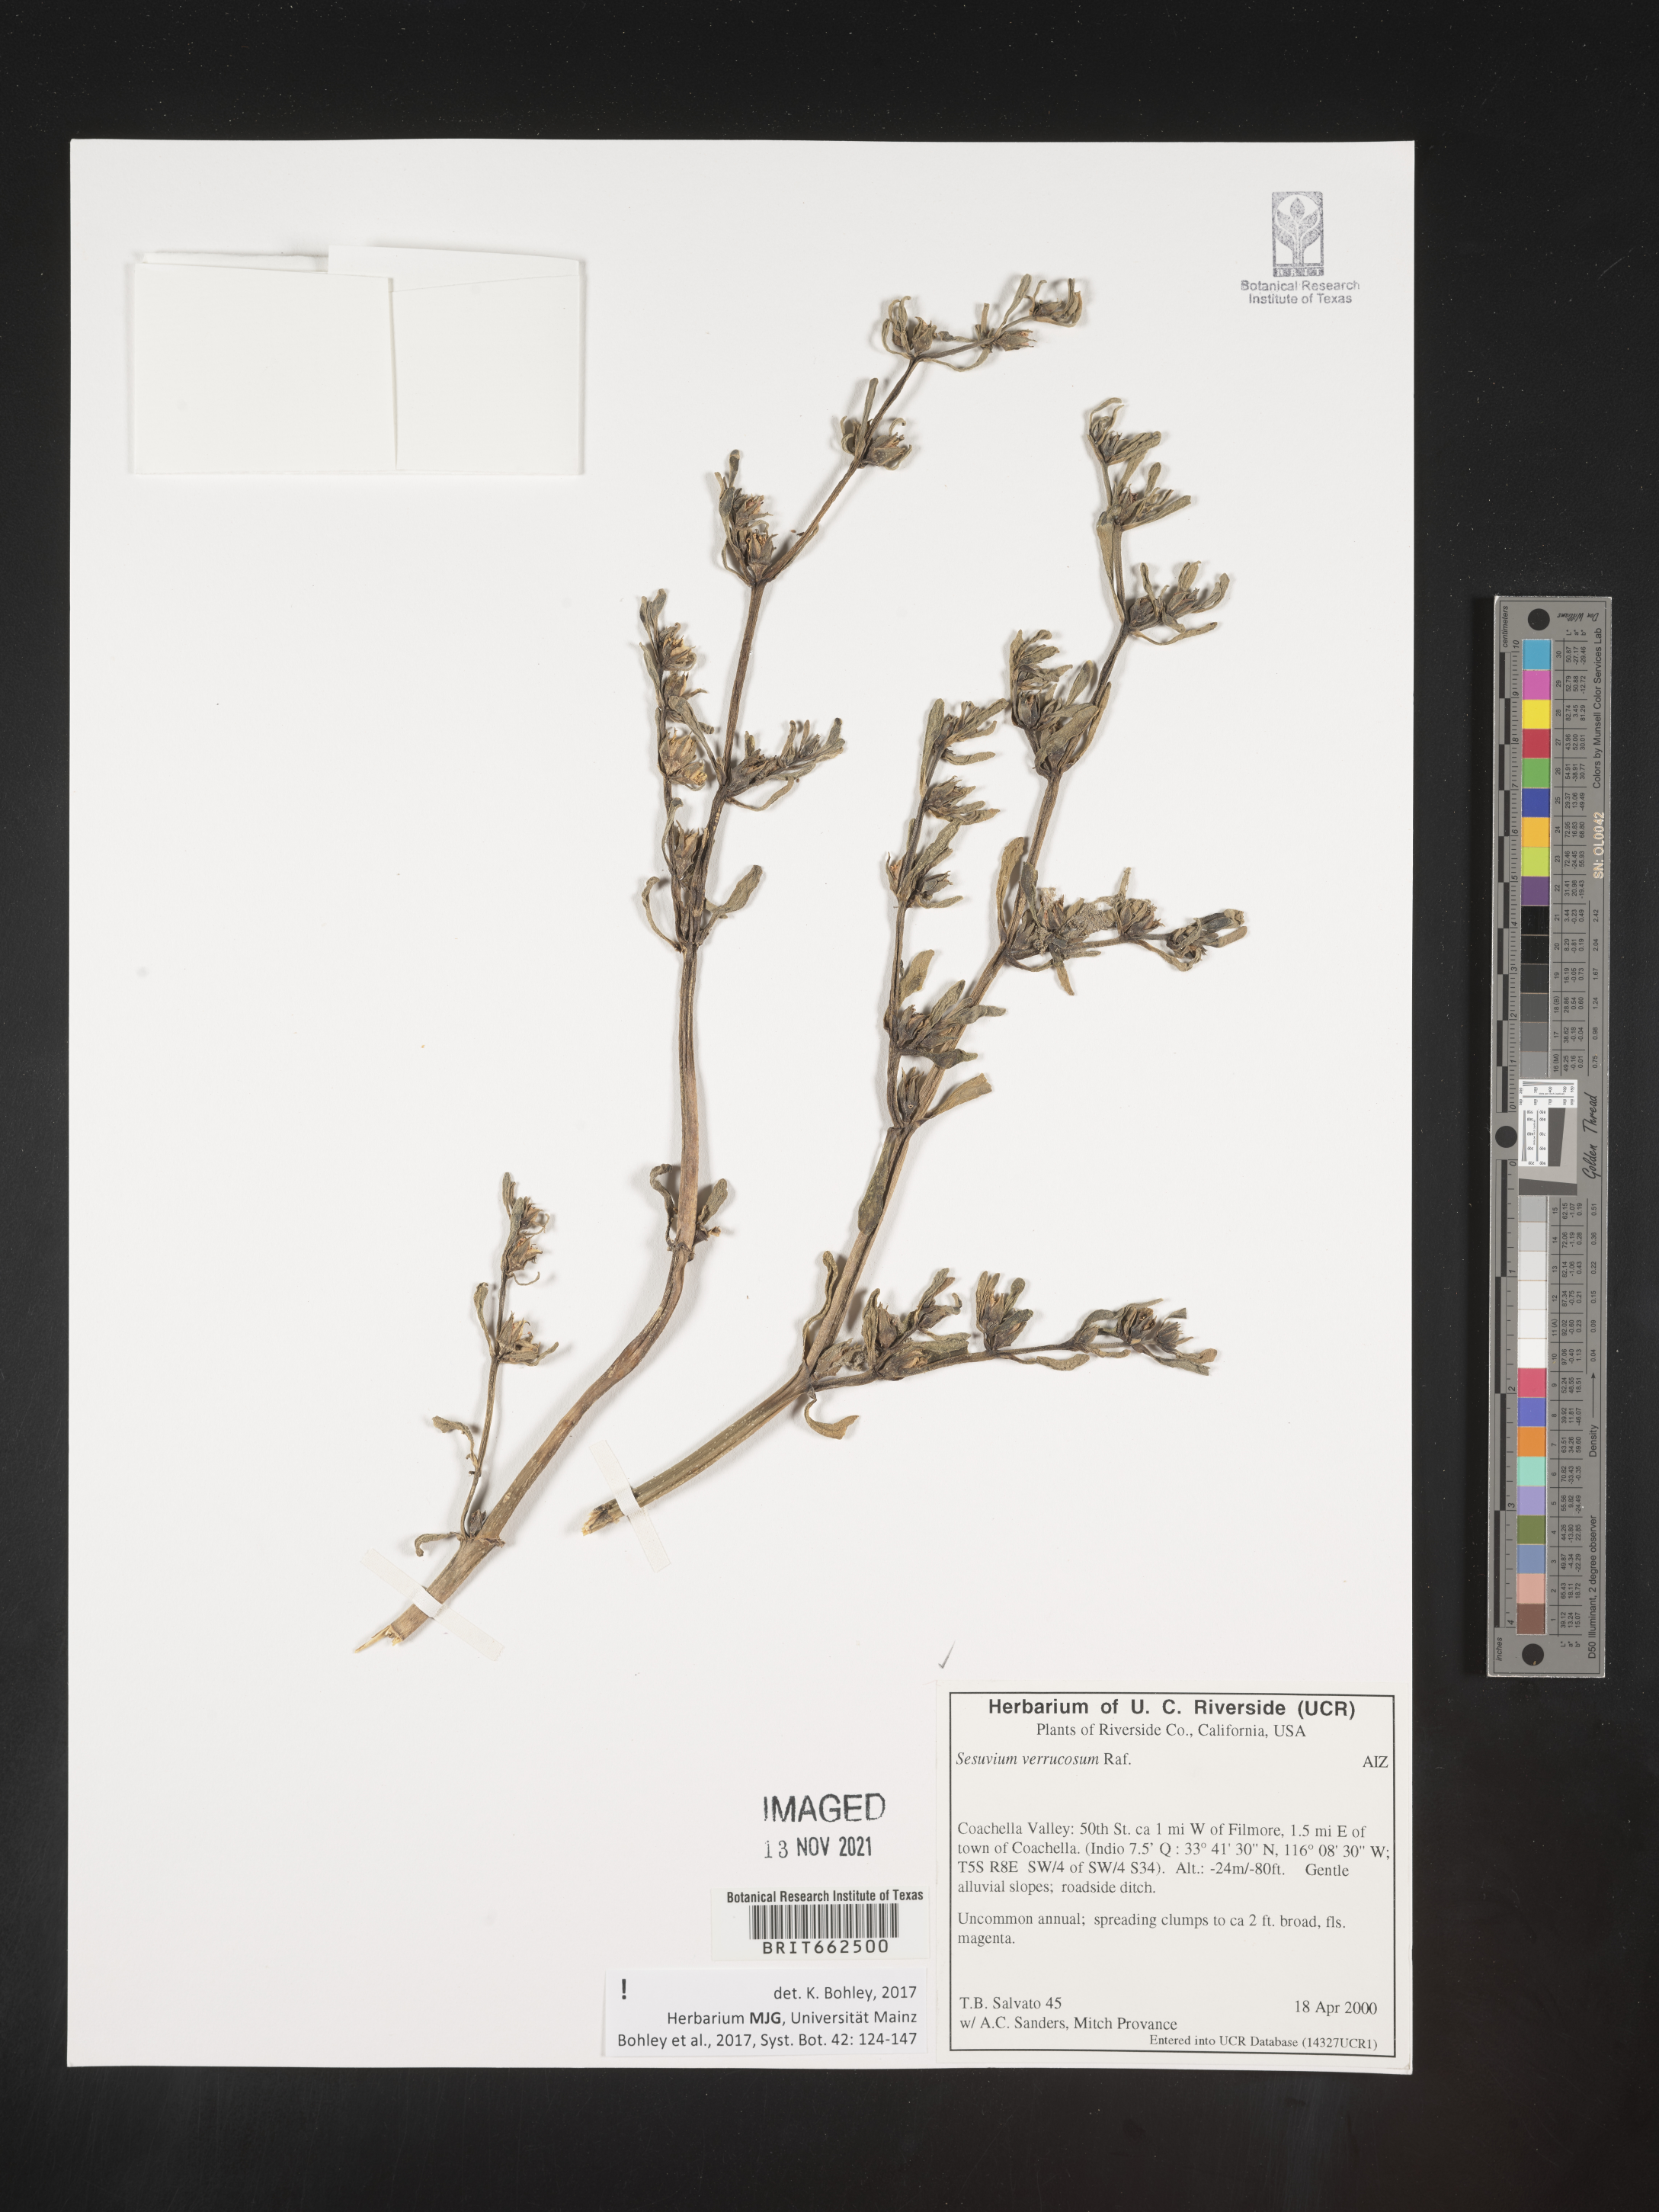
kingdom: Plantae
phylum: Tracheophyta
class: Magnoliopsida
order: Caryophyllales
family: Aizoaceae
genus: Sesuvium
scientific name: Sesuvium
